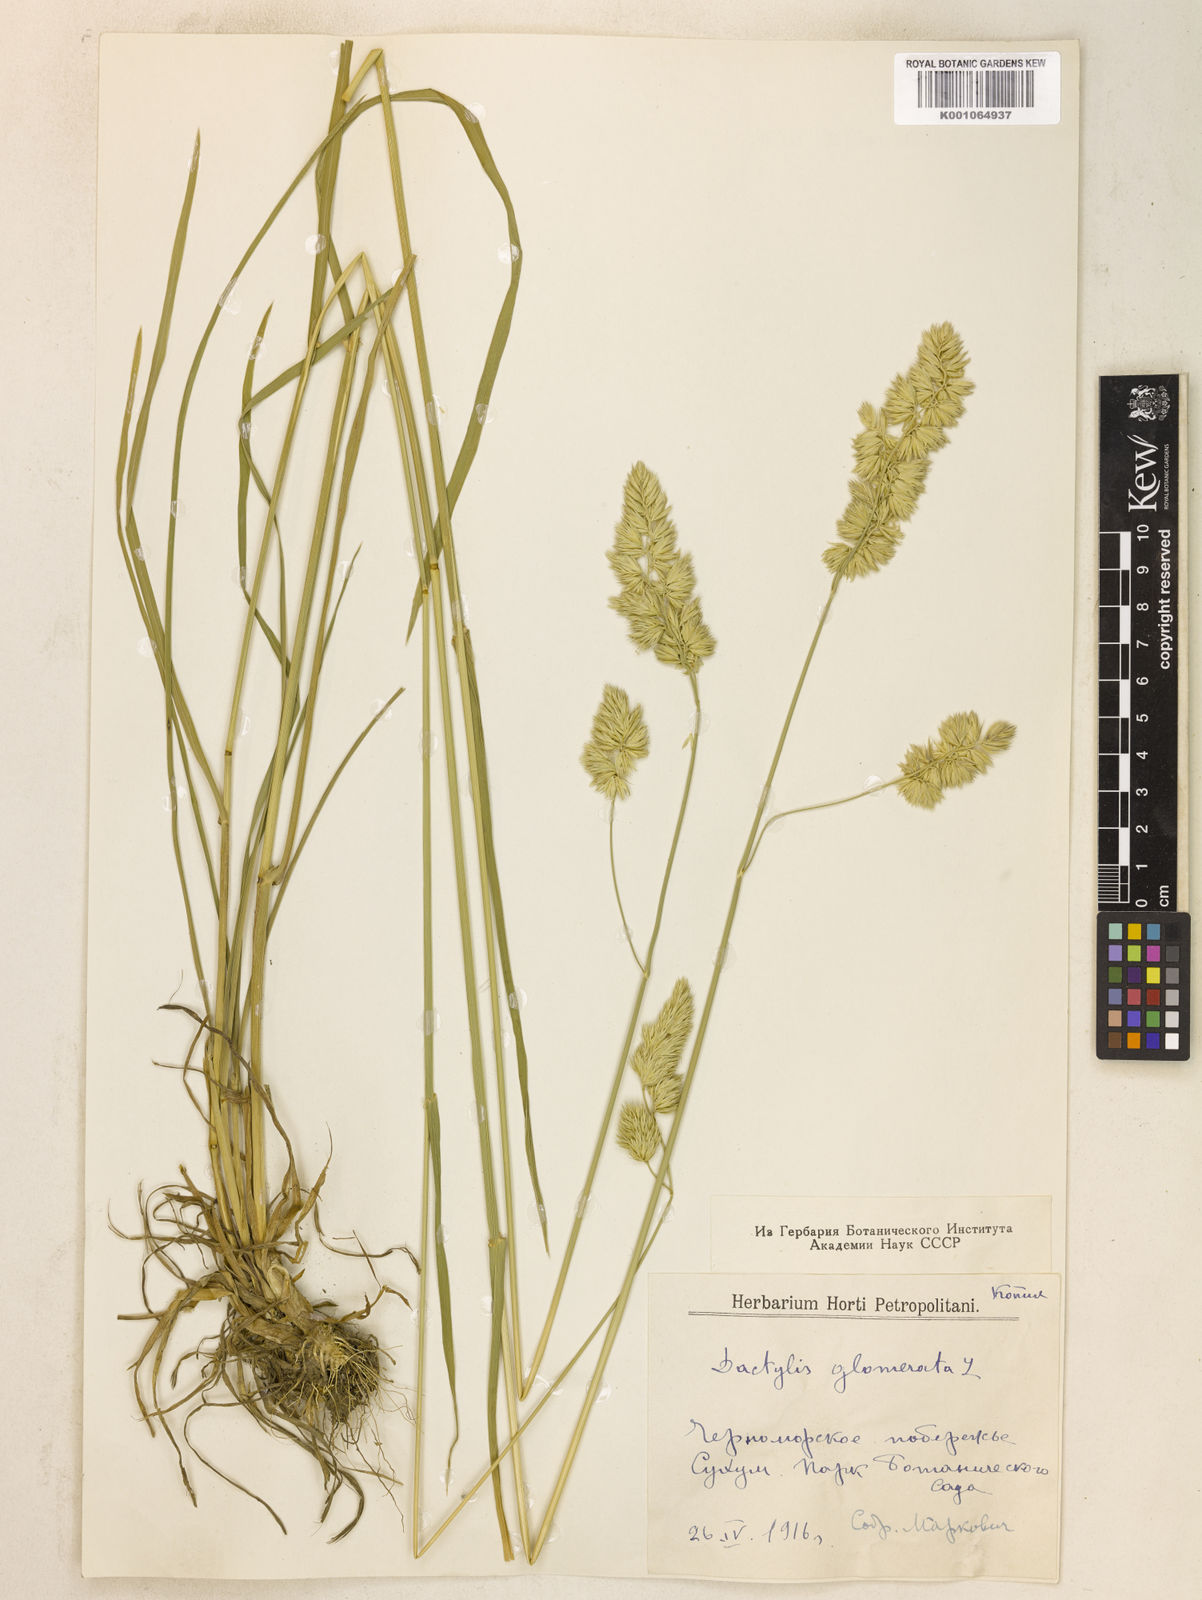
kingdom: Plantae
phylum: Tracheophyta
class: Liliopsida
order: Poales
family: Poaceae
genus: Dactylis
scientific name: Dactylis glomerata
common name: Orchardgrass
